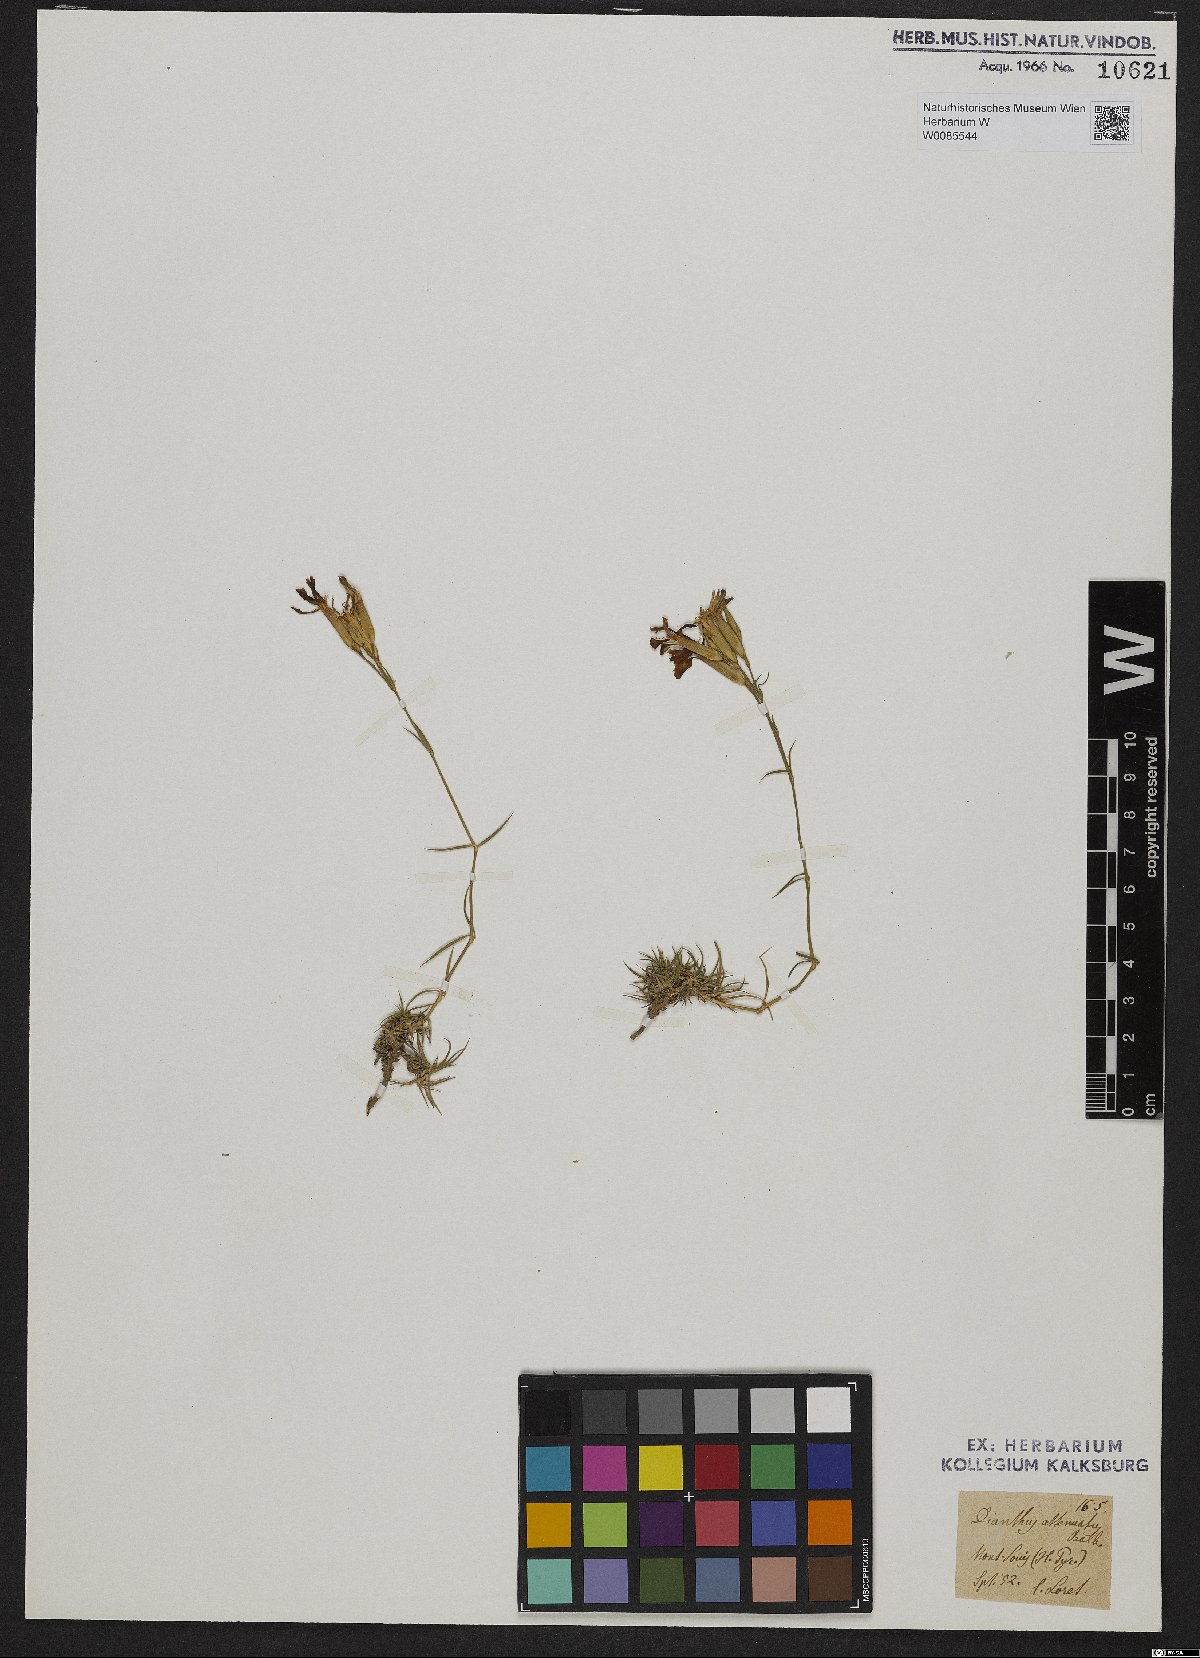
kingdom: Plantae
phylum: Tracheophyta
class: Magnoliopsida
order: Caryophyllales
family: Caryophyllaceae
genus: Dianthus
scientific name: Dianthus pyrenaicus
